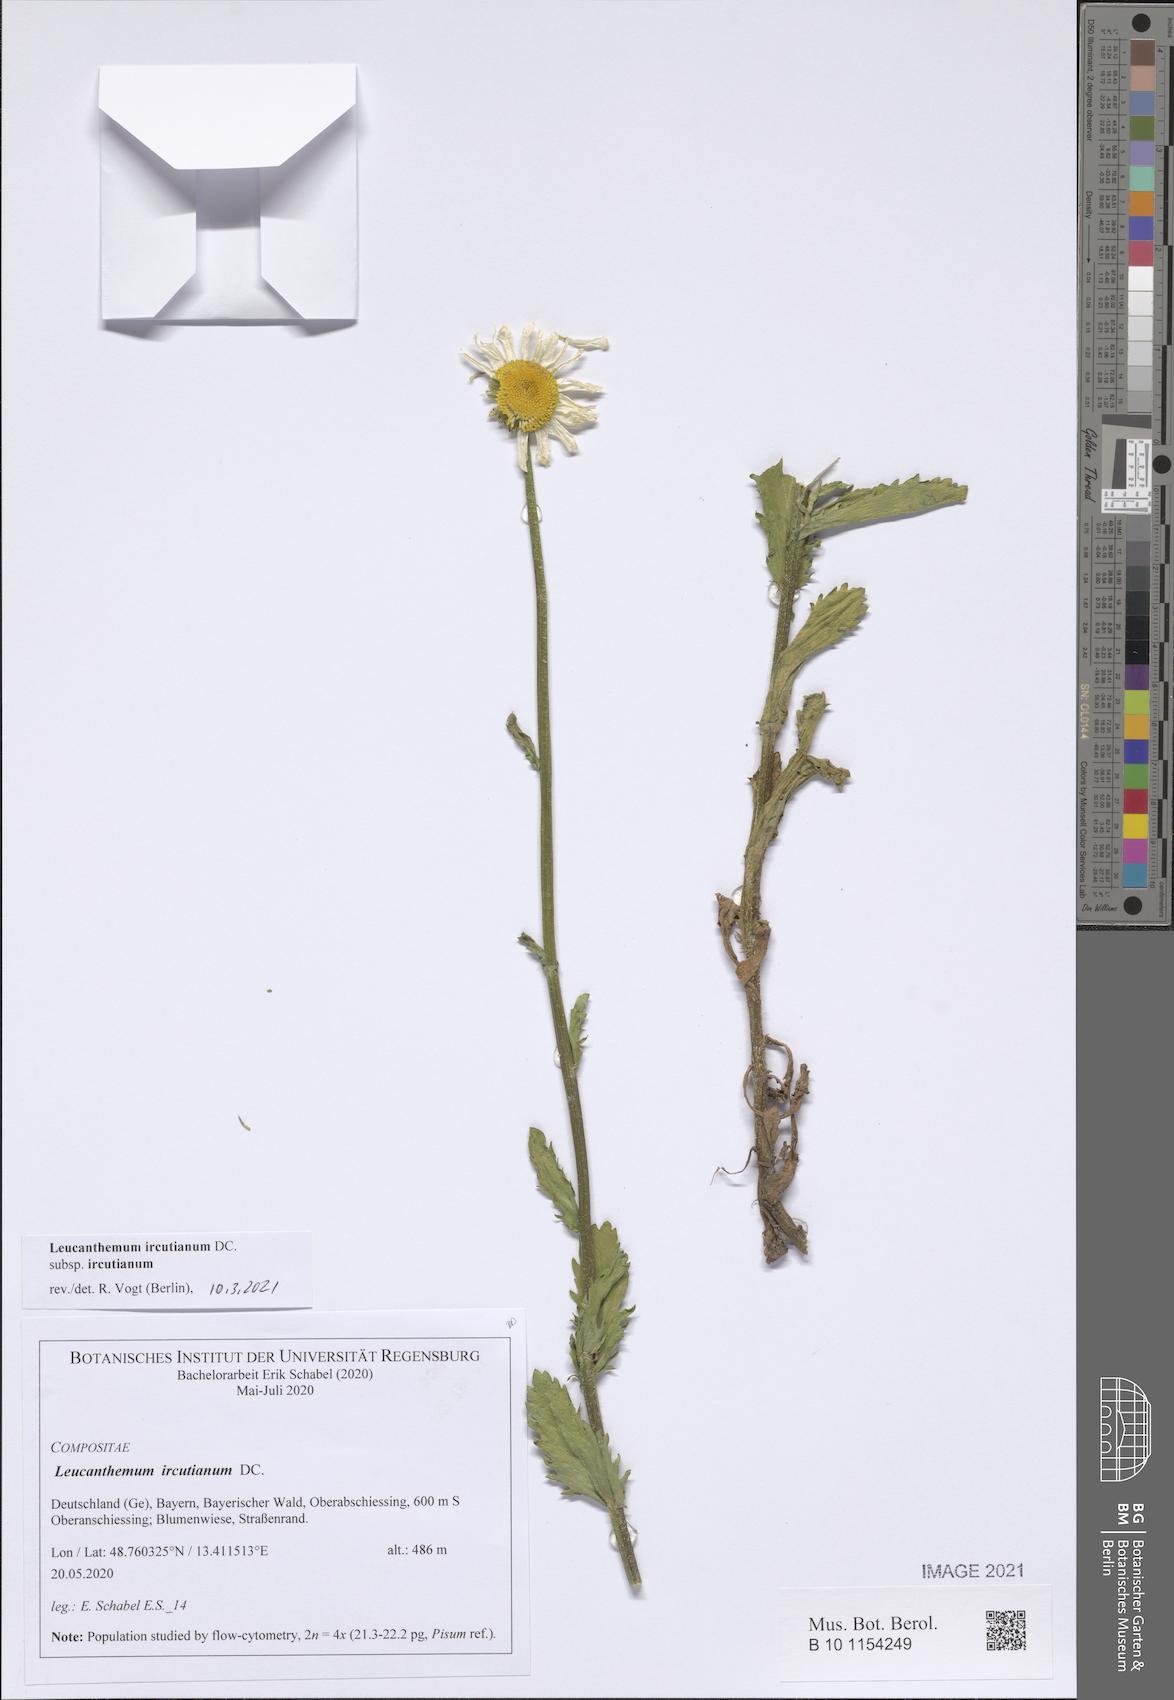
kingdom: Plantae
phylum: Tracheophyta
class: Magnoliopsida
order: Asterales
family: Asteraceae
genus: Leucanthemum
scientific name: Leucanthemum ircutianum
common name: Daisy
